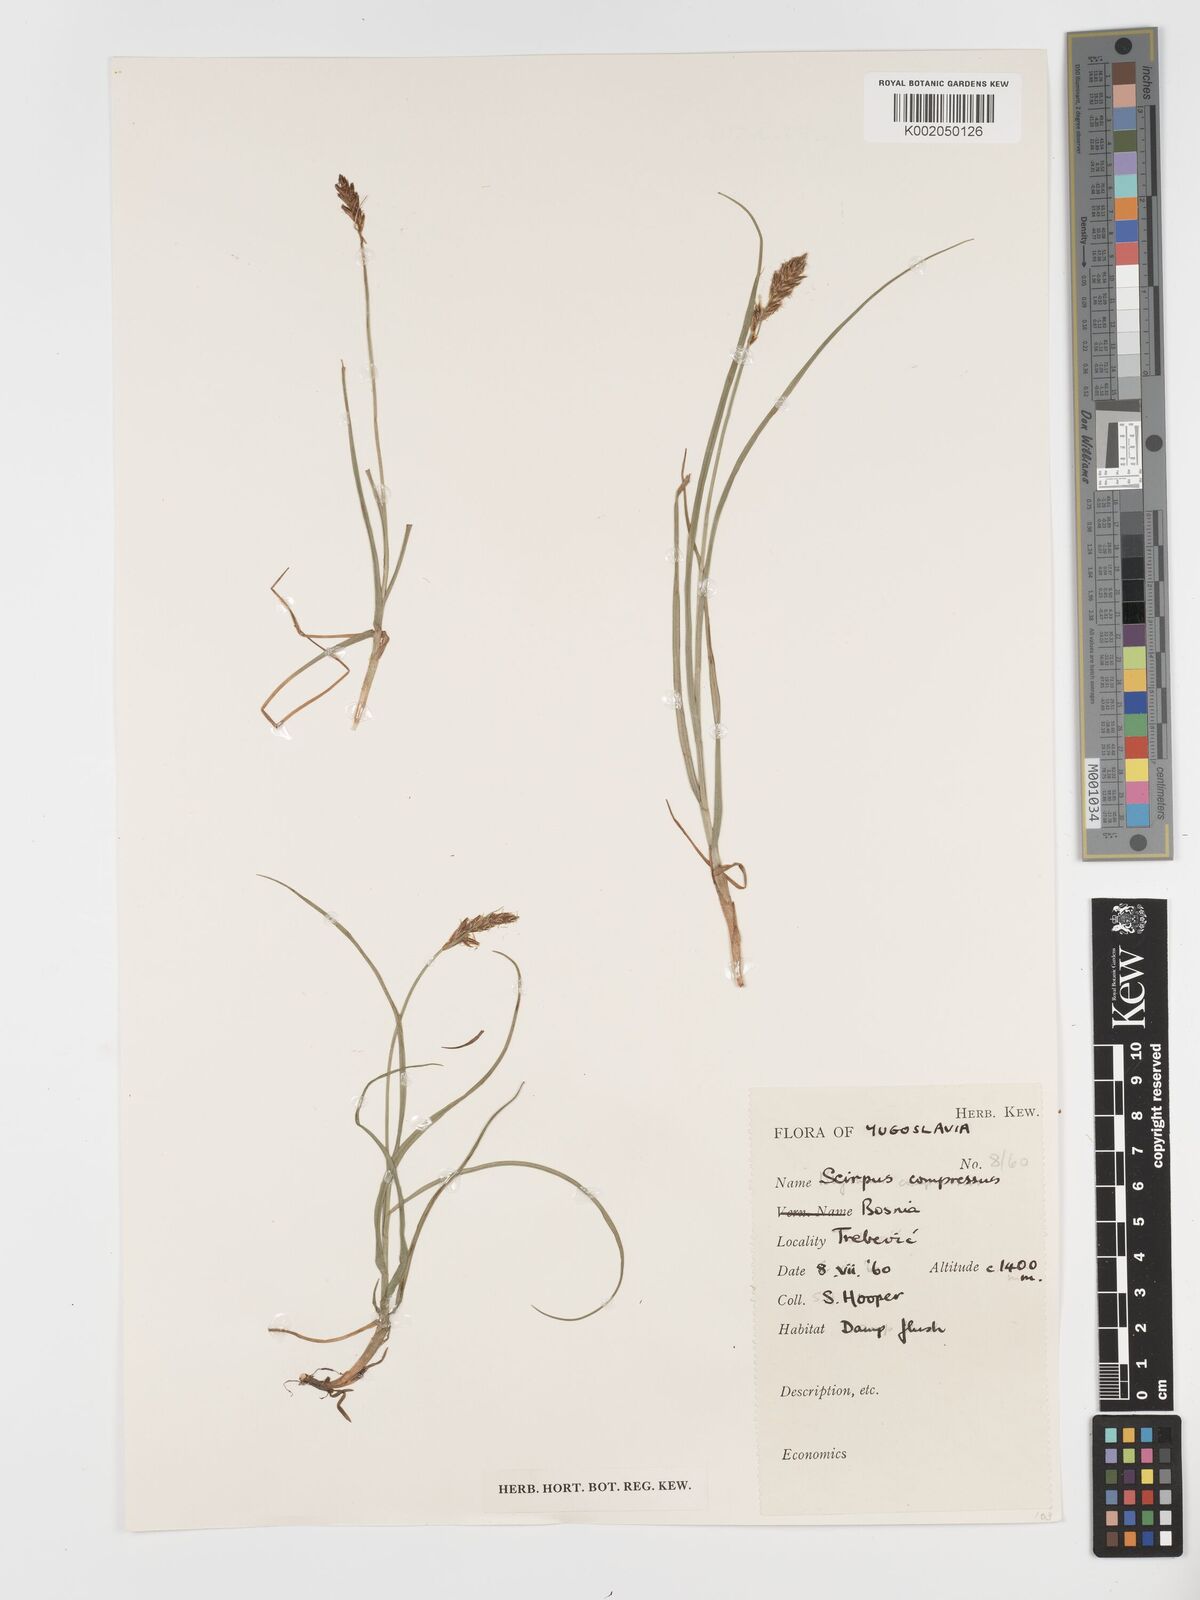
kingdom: Plantae
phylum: Tracheophyta
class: Liliopsida
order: Poales
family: Cyperaceae
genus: Blysmus
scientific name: Blysmus compressus
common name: Flat-sedge
